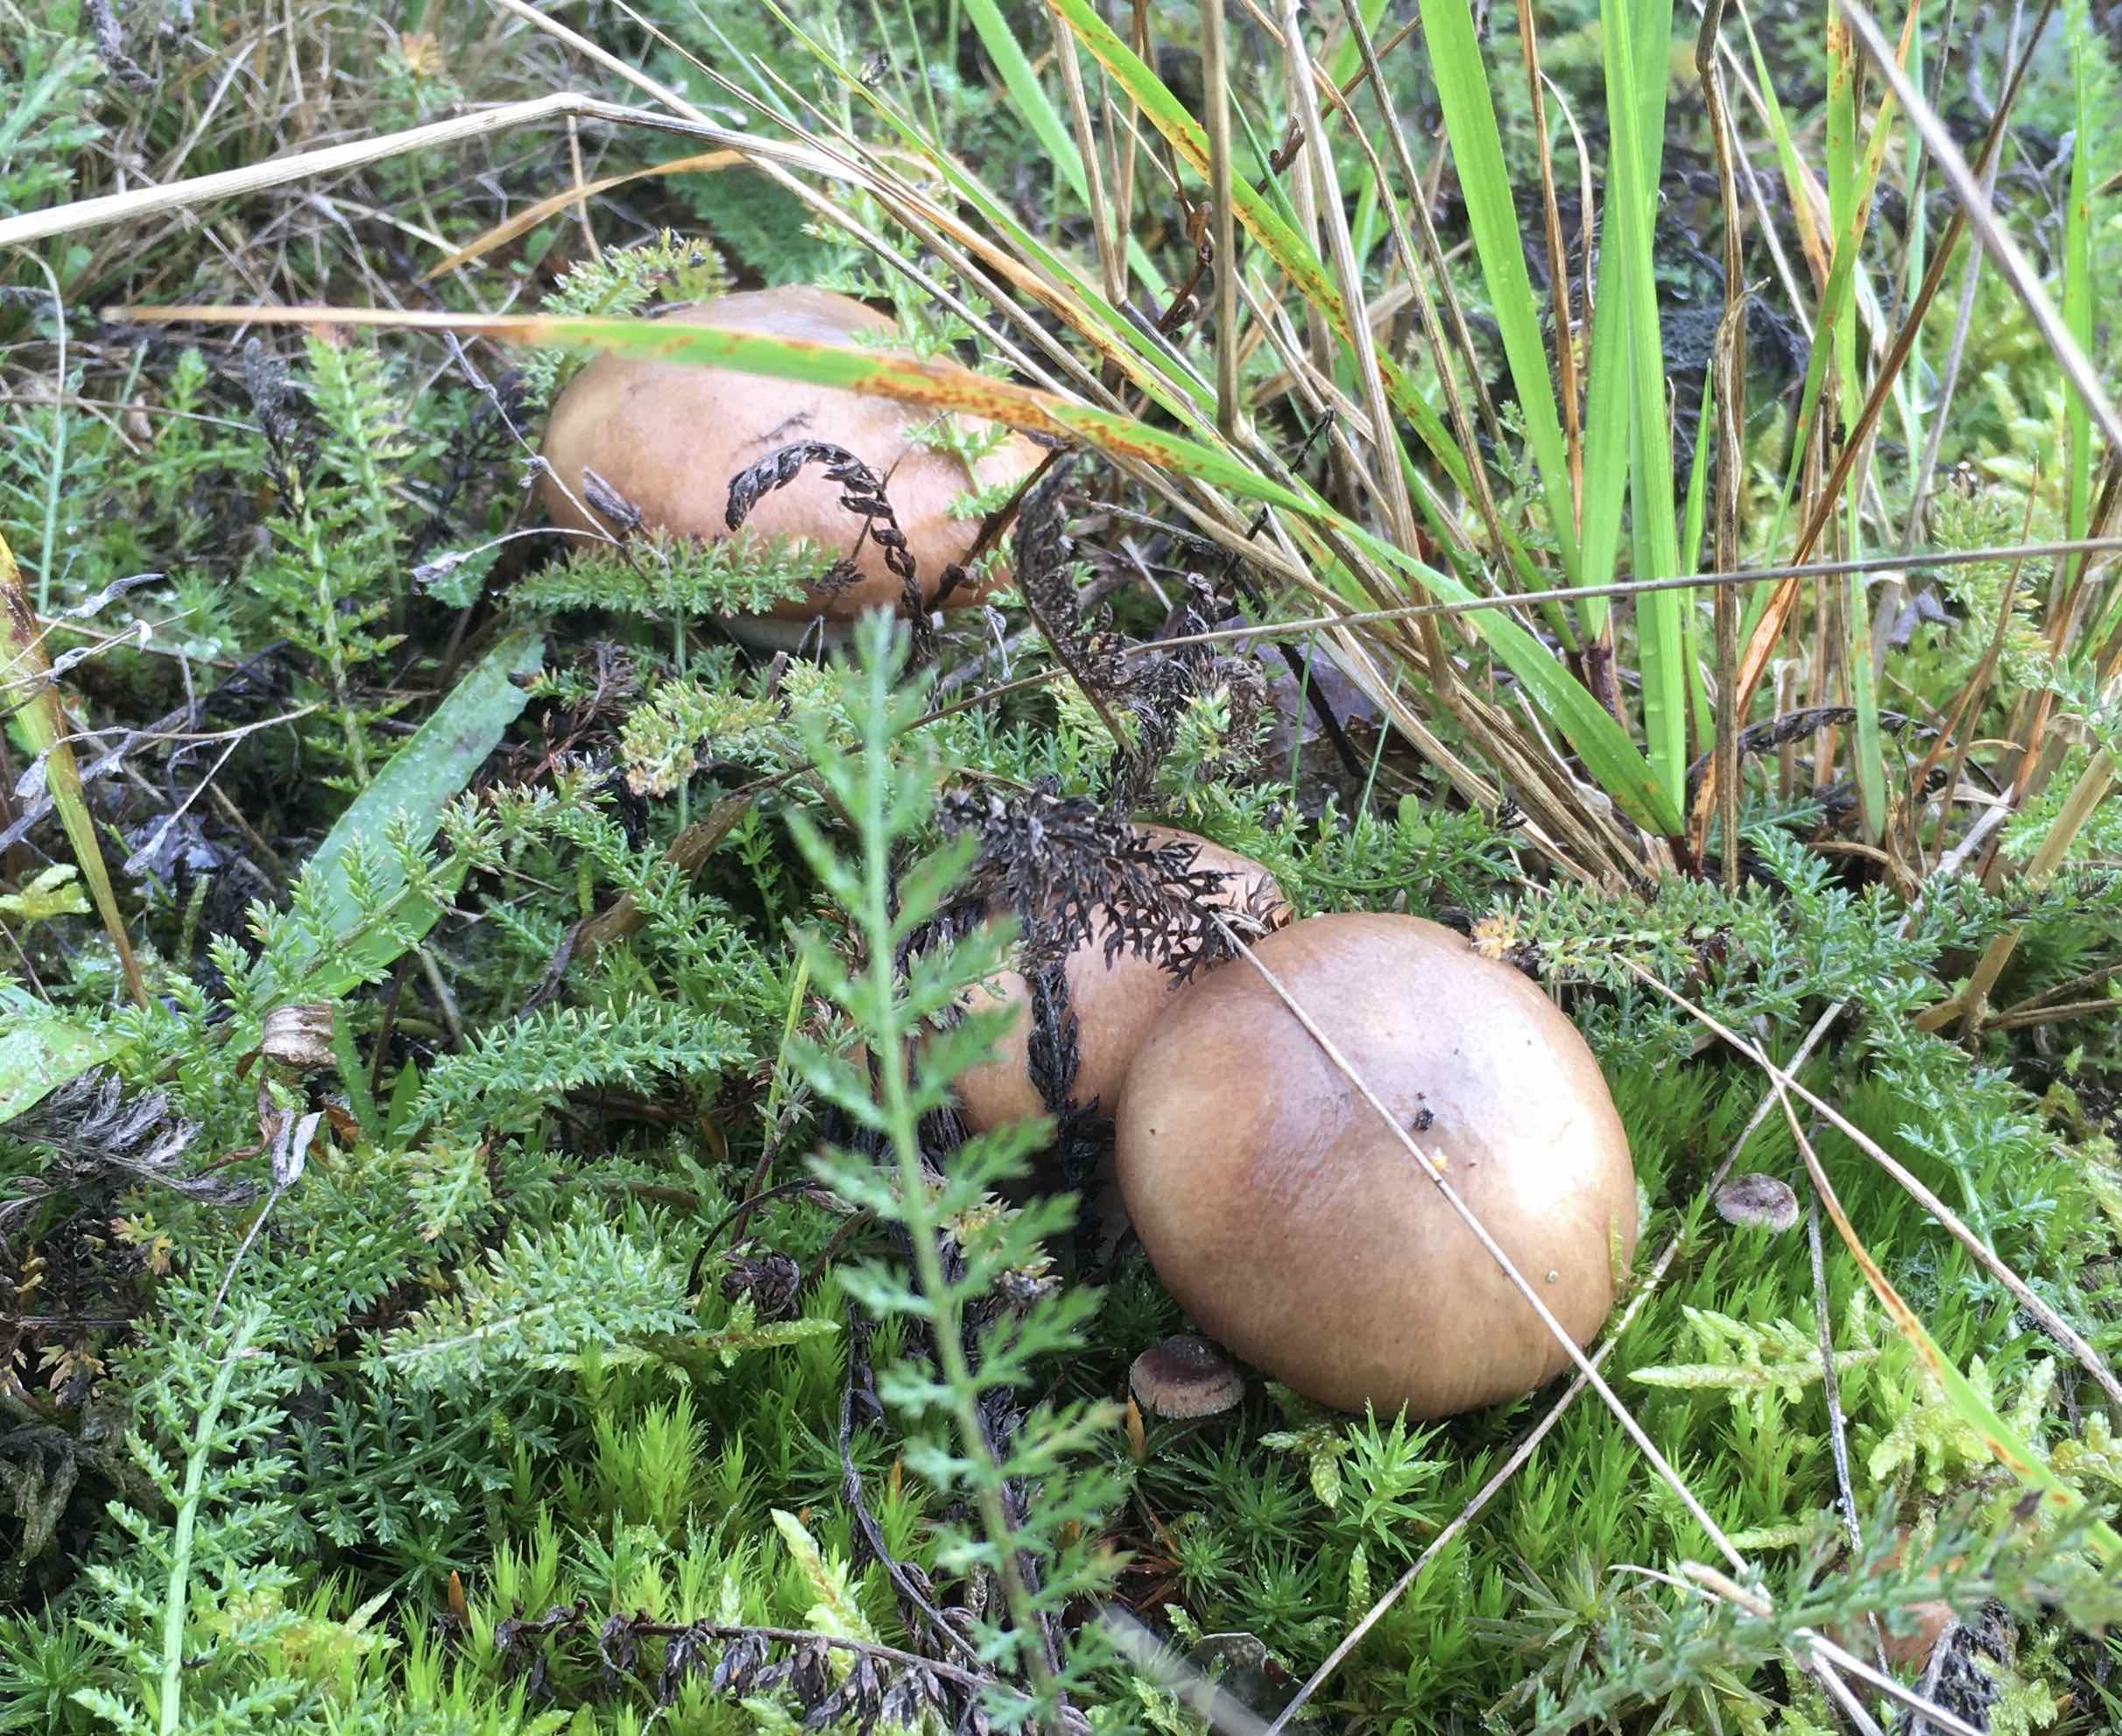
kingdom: Fungi
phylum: Basidiomycota
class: Agaricomycetes
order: Boletales
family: Suillaceae
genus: Suillus
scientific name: Suillus luteus
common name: brungul slimrørhat
